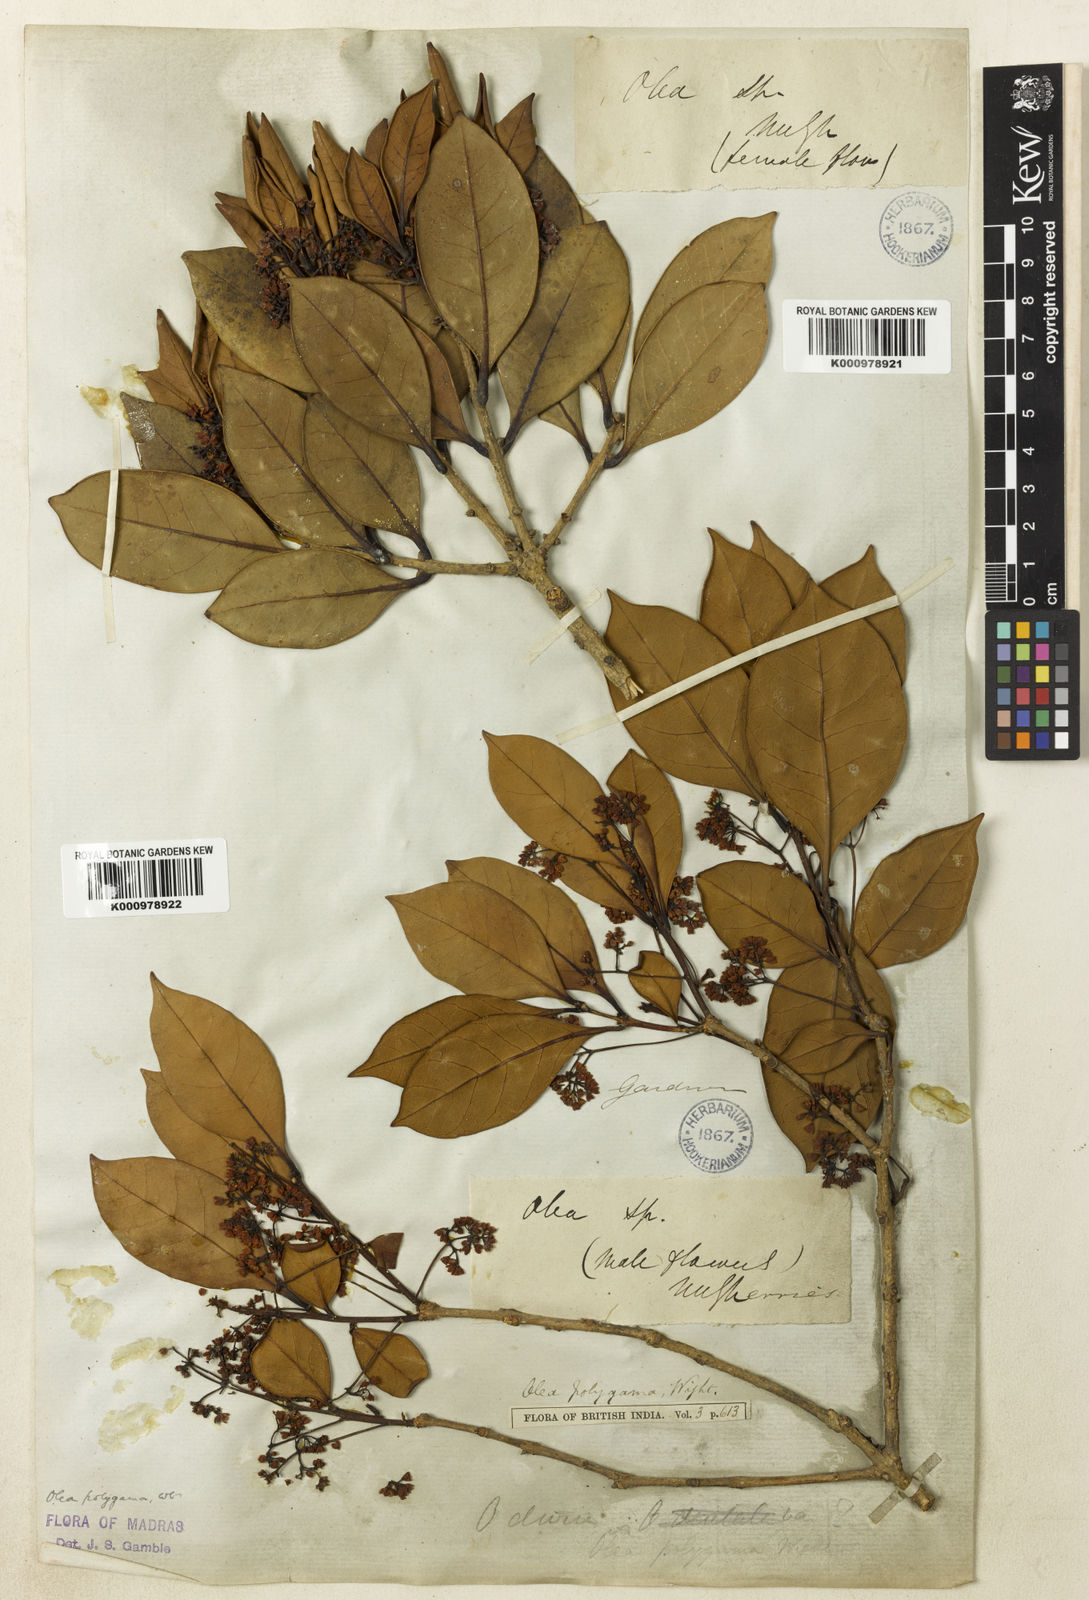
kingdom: Plantae
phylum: Tracheophyta
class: Magnoliopsida
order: Lamiales
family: Oleaceae
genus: Tetrapilus
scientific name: Tetrapilus polygamus
